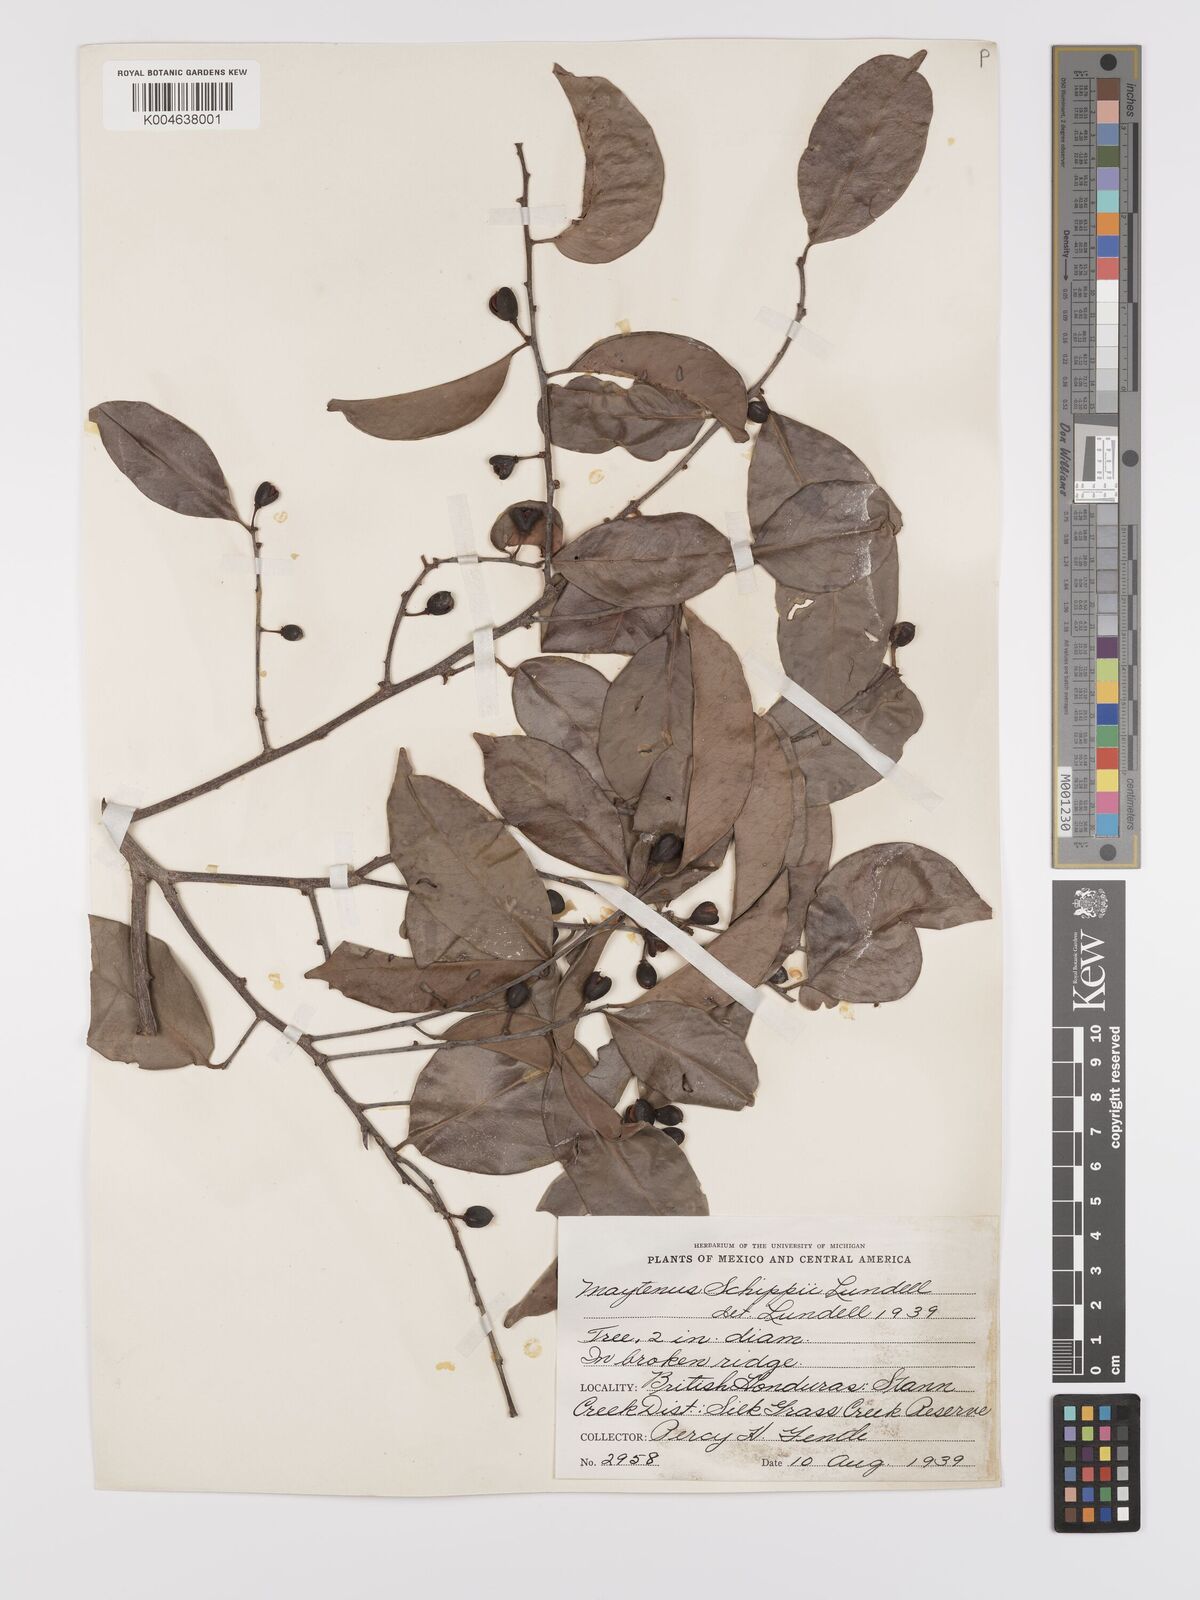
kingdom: Plantae
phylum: Tracheophyta
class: Magnoliopsida
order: Celastrales
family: Celastraceae
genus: Monteverdia
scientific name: Monteverdia schippii
